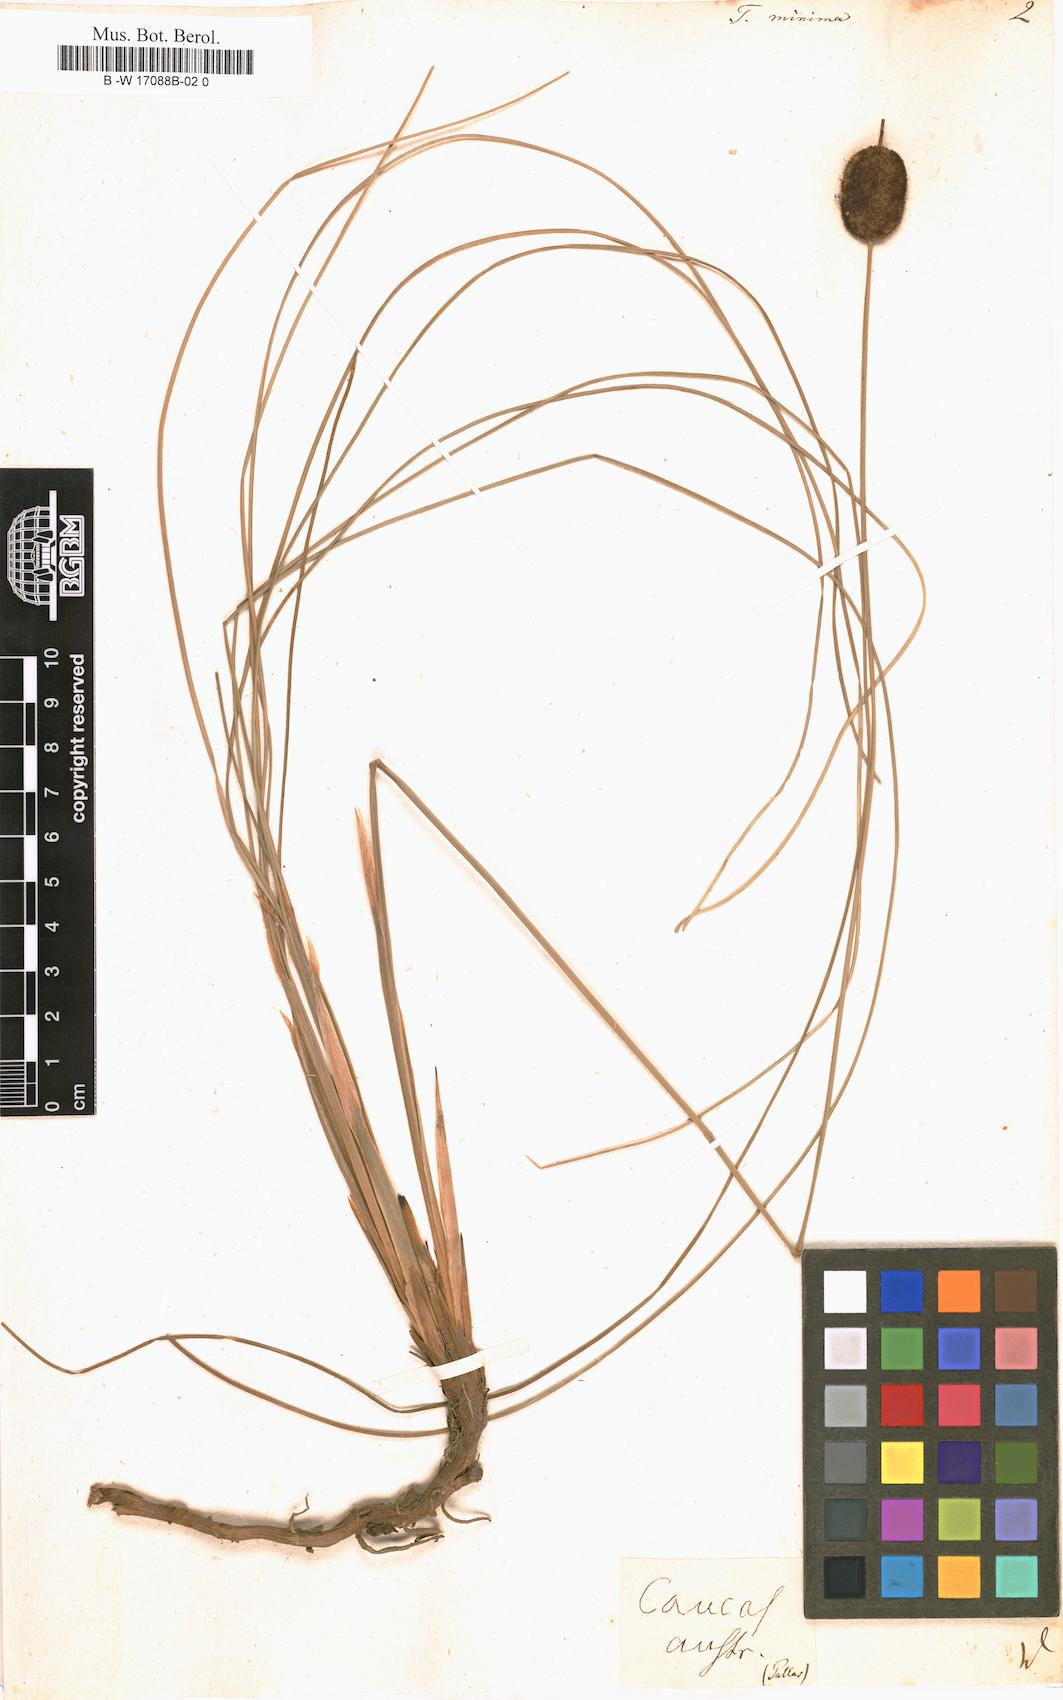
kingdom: Plantae
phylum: Tracheophyta
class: Liliopsida
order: Poales
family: Typhaceae
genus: Typha
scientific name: Typha minima
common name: Dwarf bulrush
